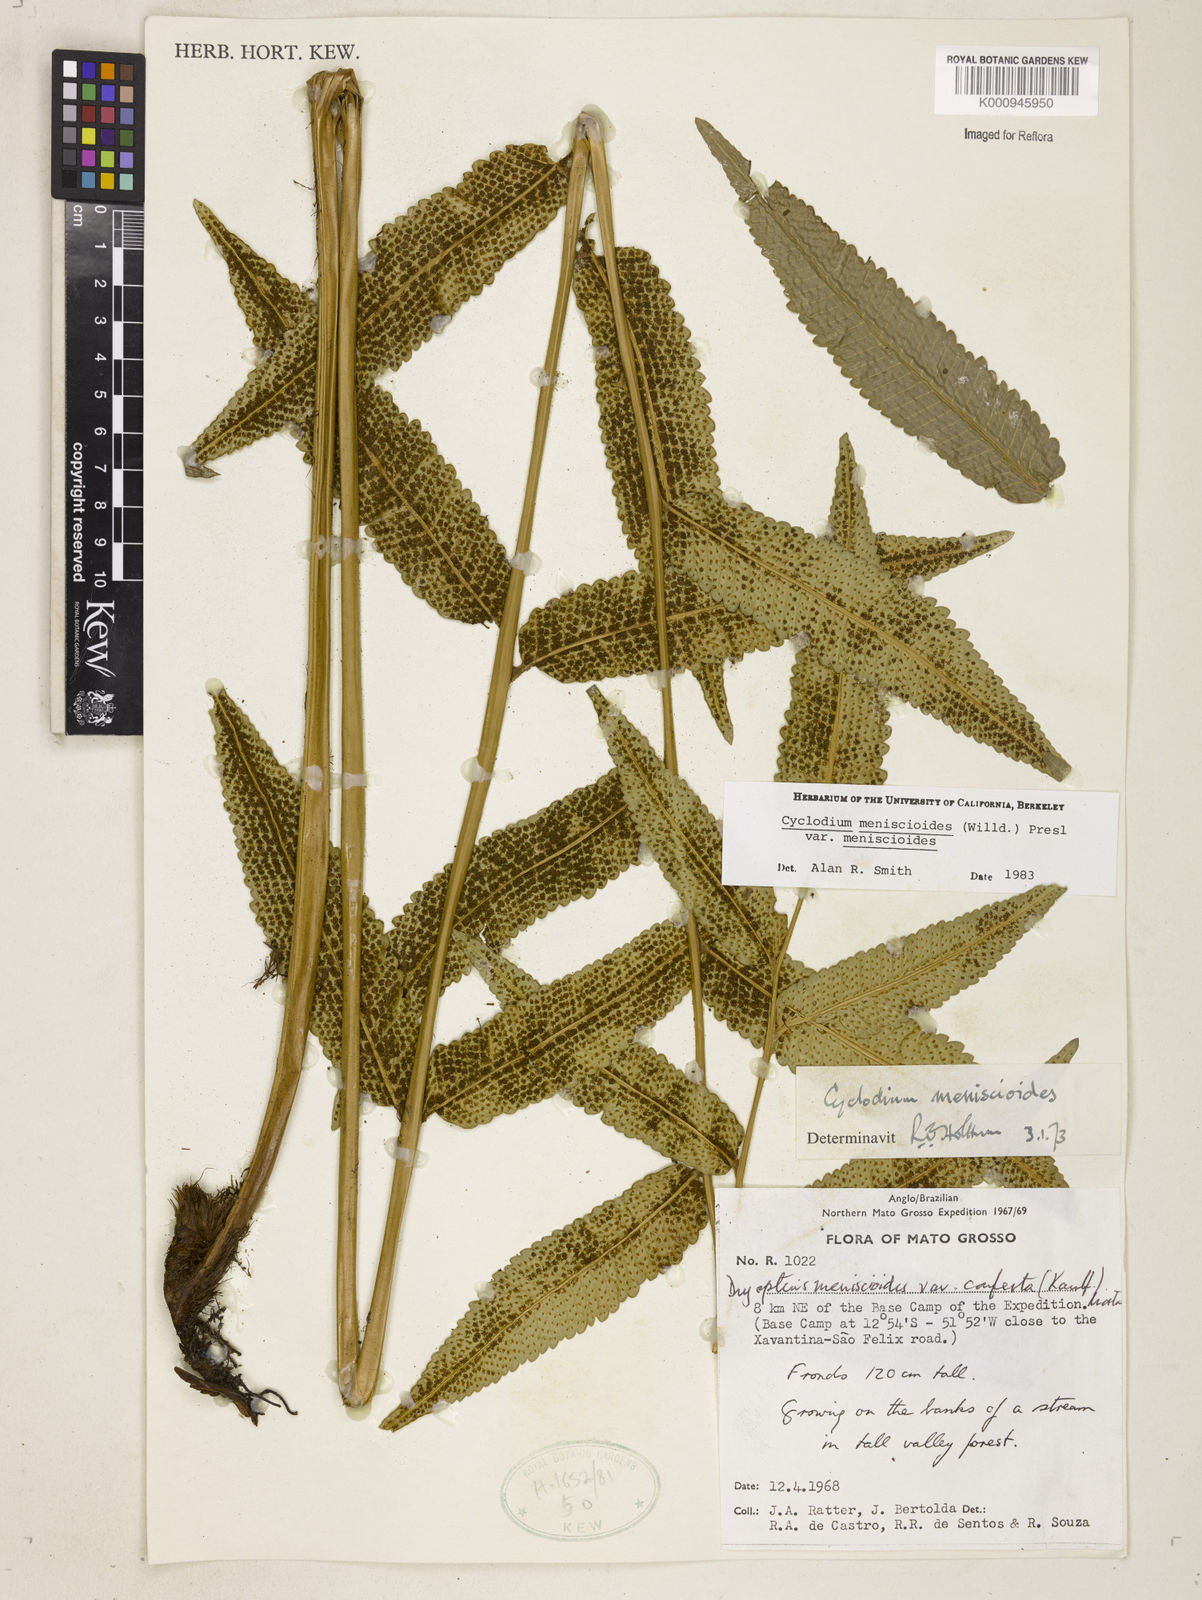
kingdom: Plantae
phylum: Tracheophyta
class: Polypodiopsida
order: Polypodiales
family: Dryopteridaceae
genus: Cyclodium
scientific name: Cyclodium meniscioides
